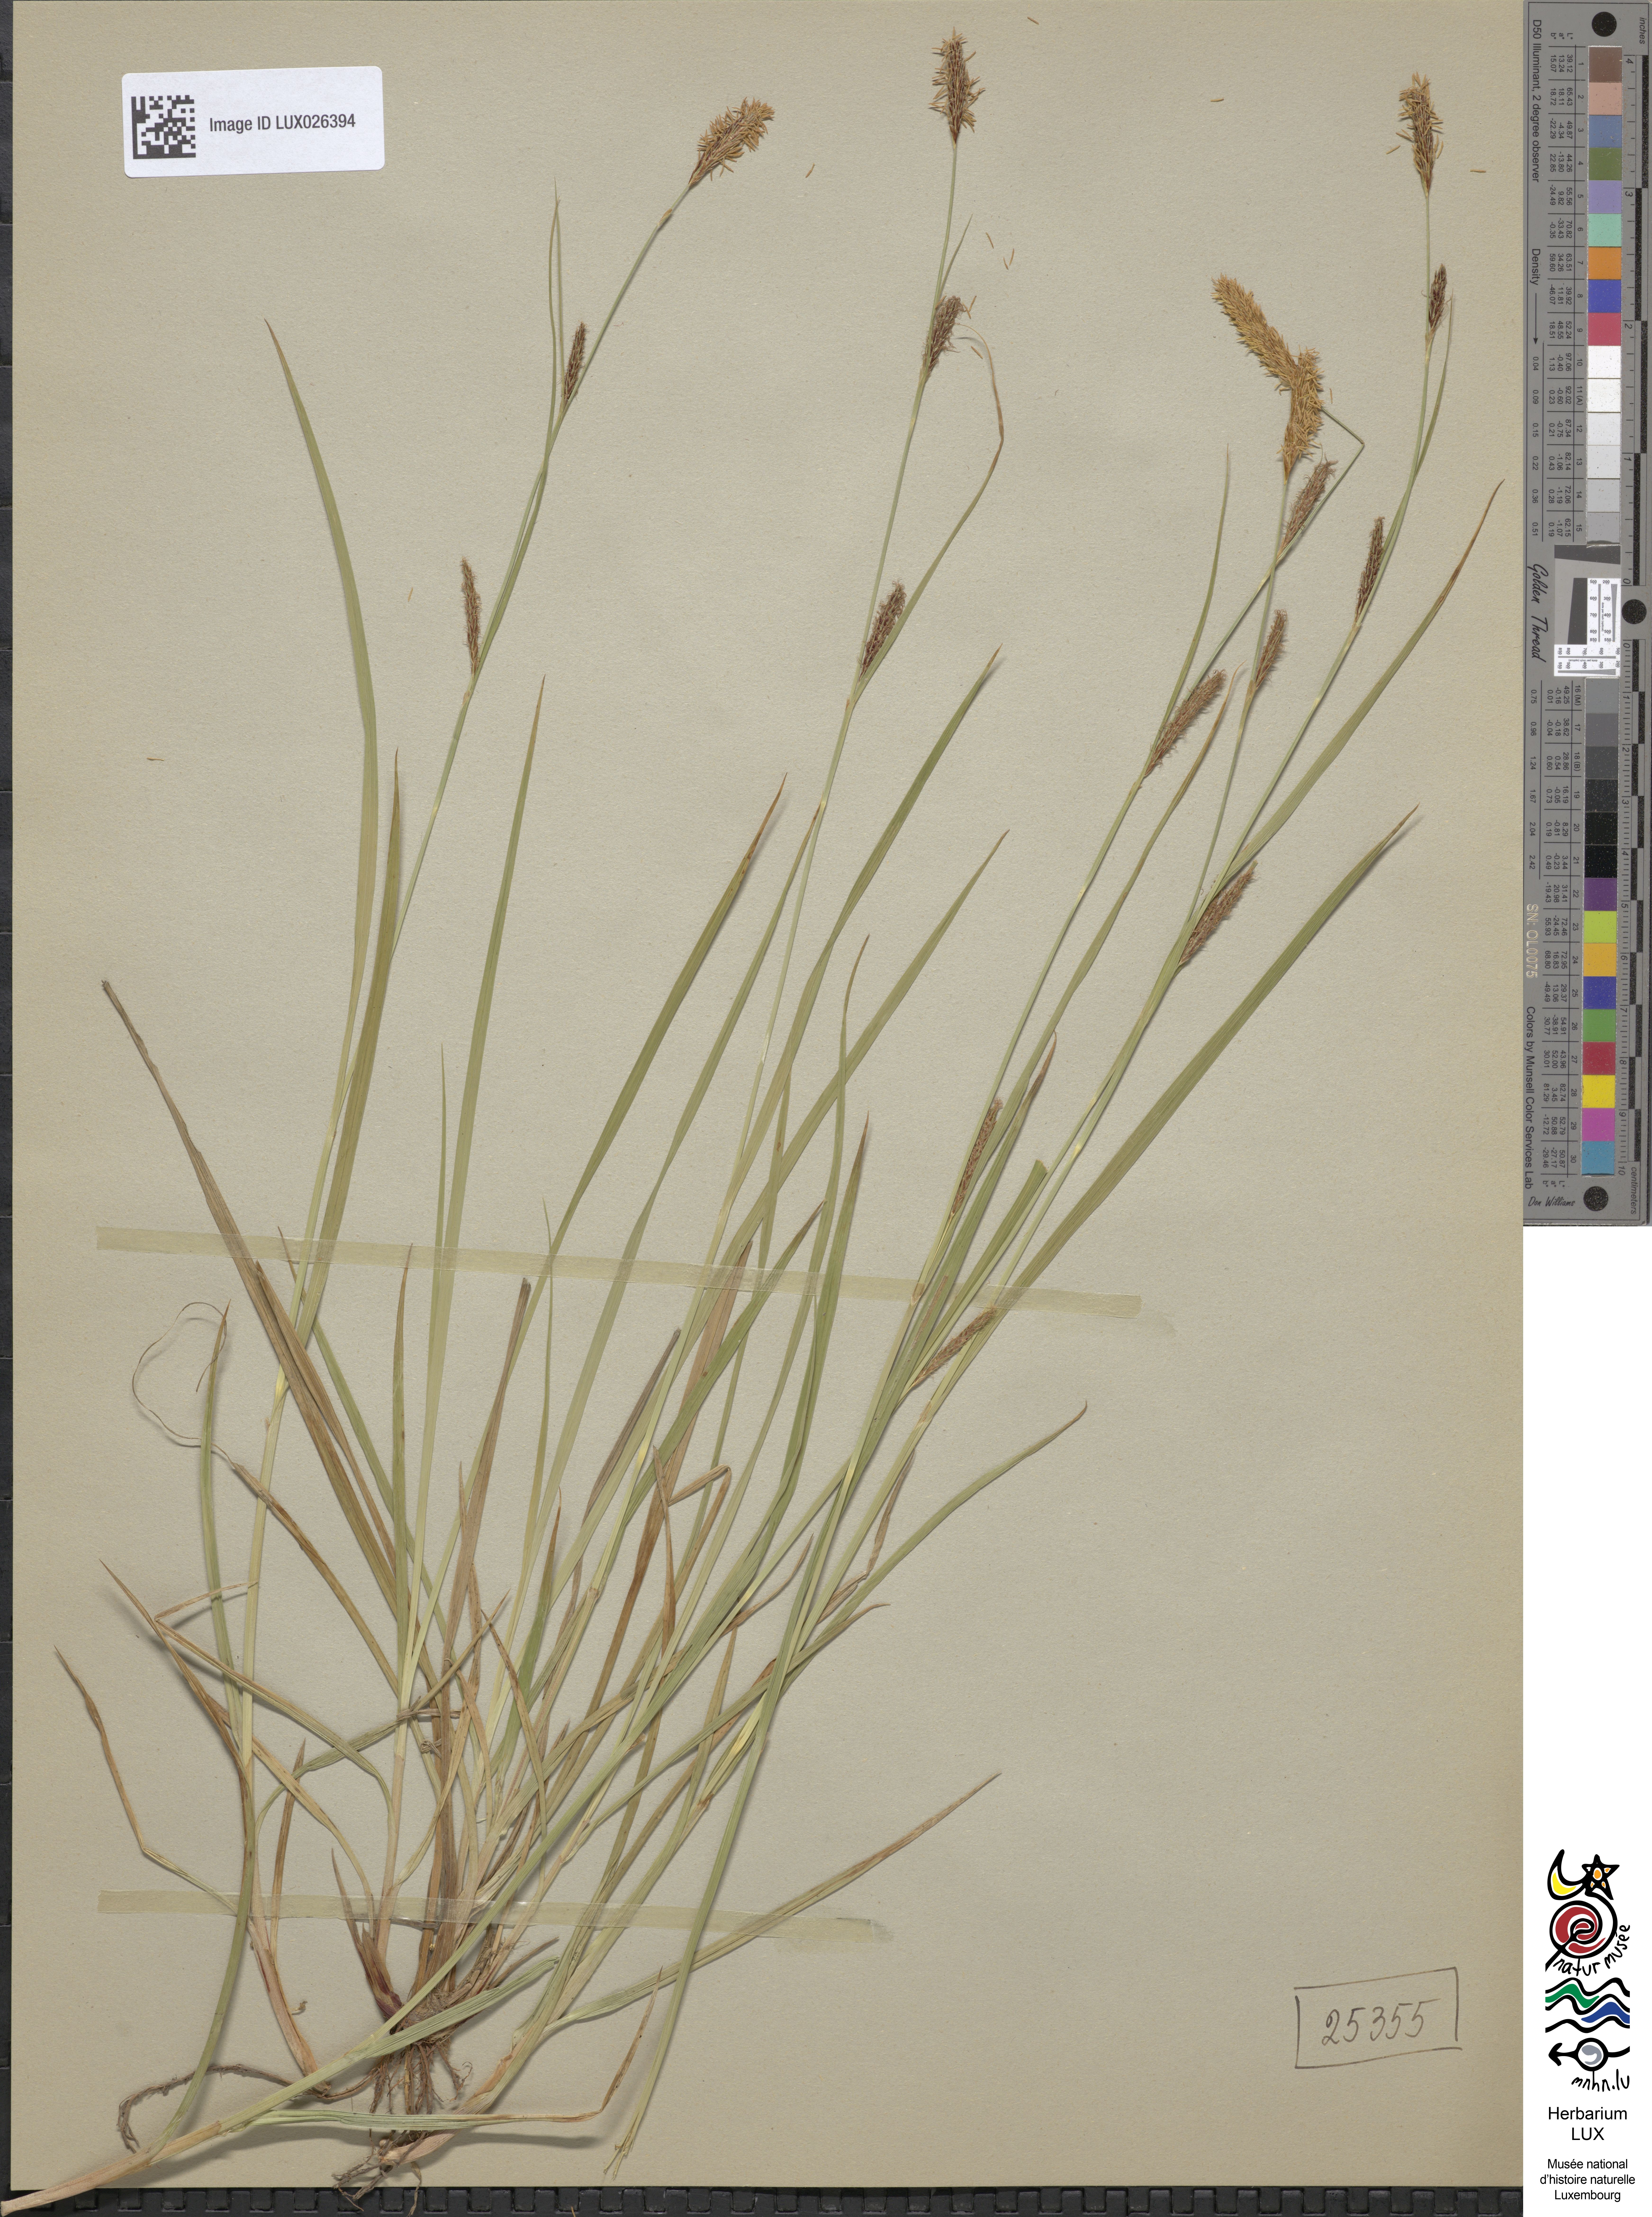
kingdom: Plantae
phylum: Tracheophyta
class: Liliopsida
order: Poales
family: Cyperaceae
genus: Carex
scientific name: Carex distans
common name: Distant sedge
